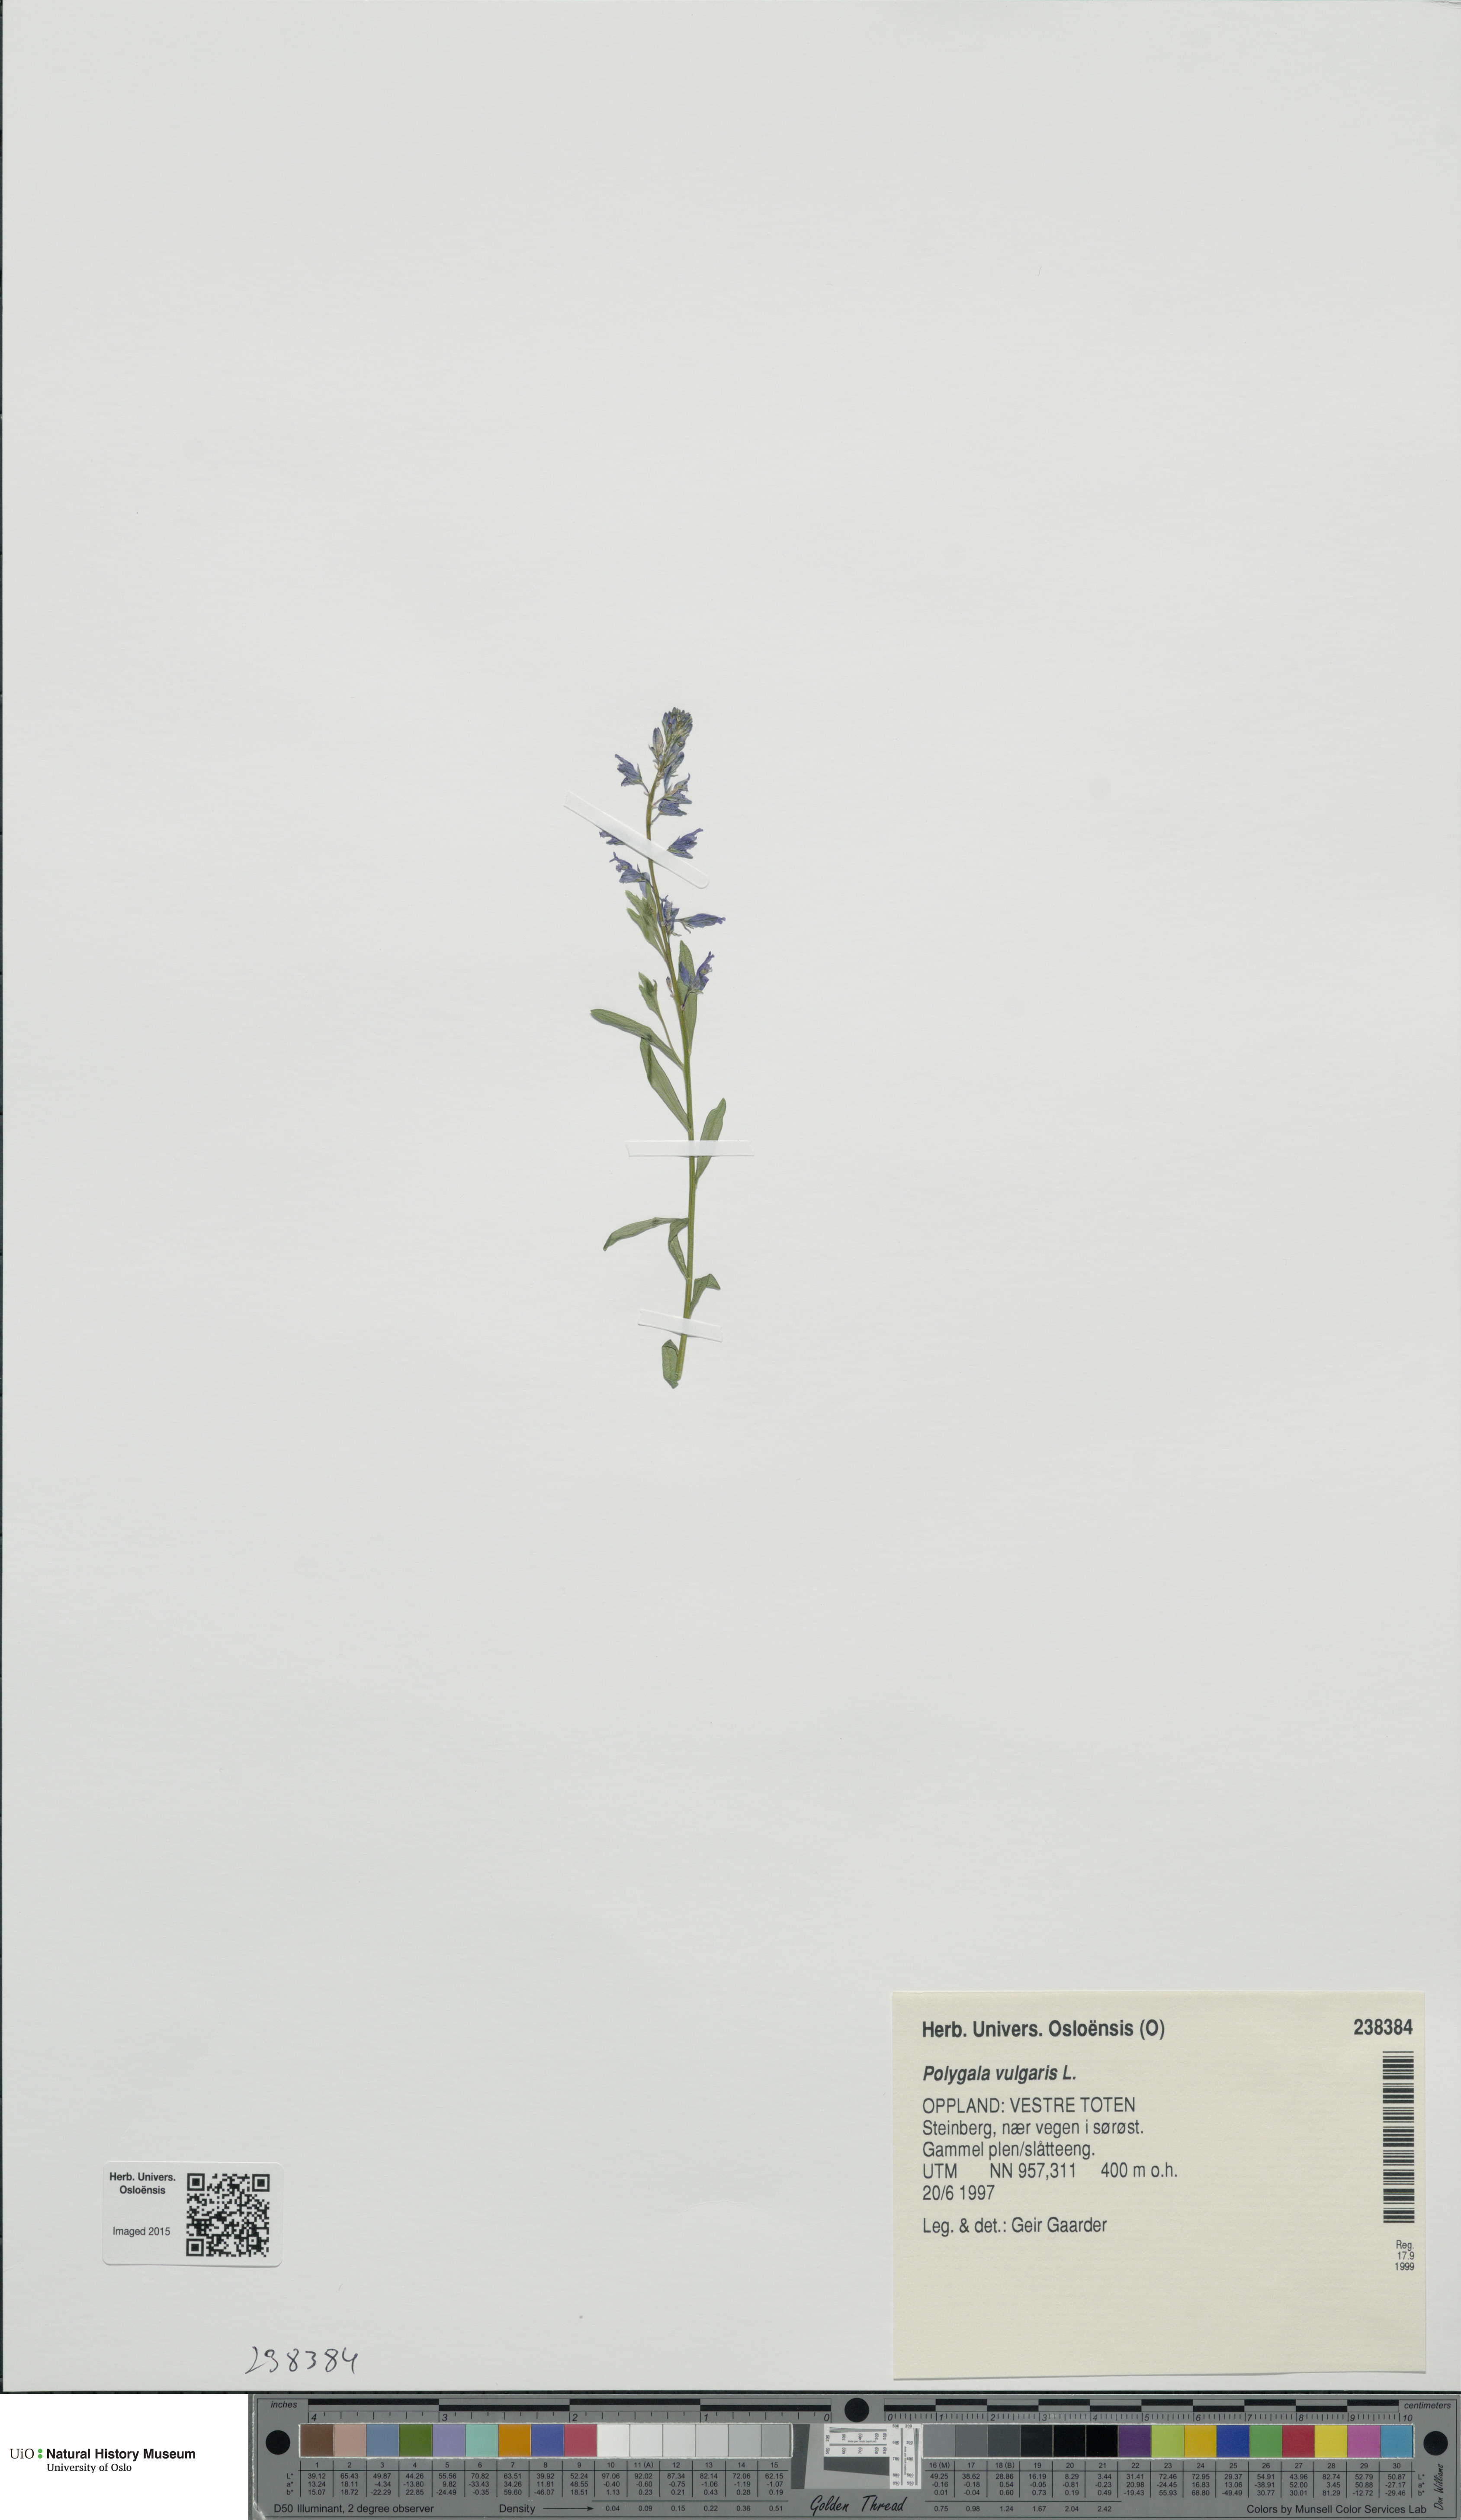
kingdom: Plantae
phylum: Tracheophyta
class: Magnoliopsida
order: Fabales
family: Polygalaceae
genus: Polygala
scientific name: Polygala vulgaris
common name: Common milkwort
